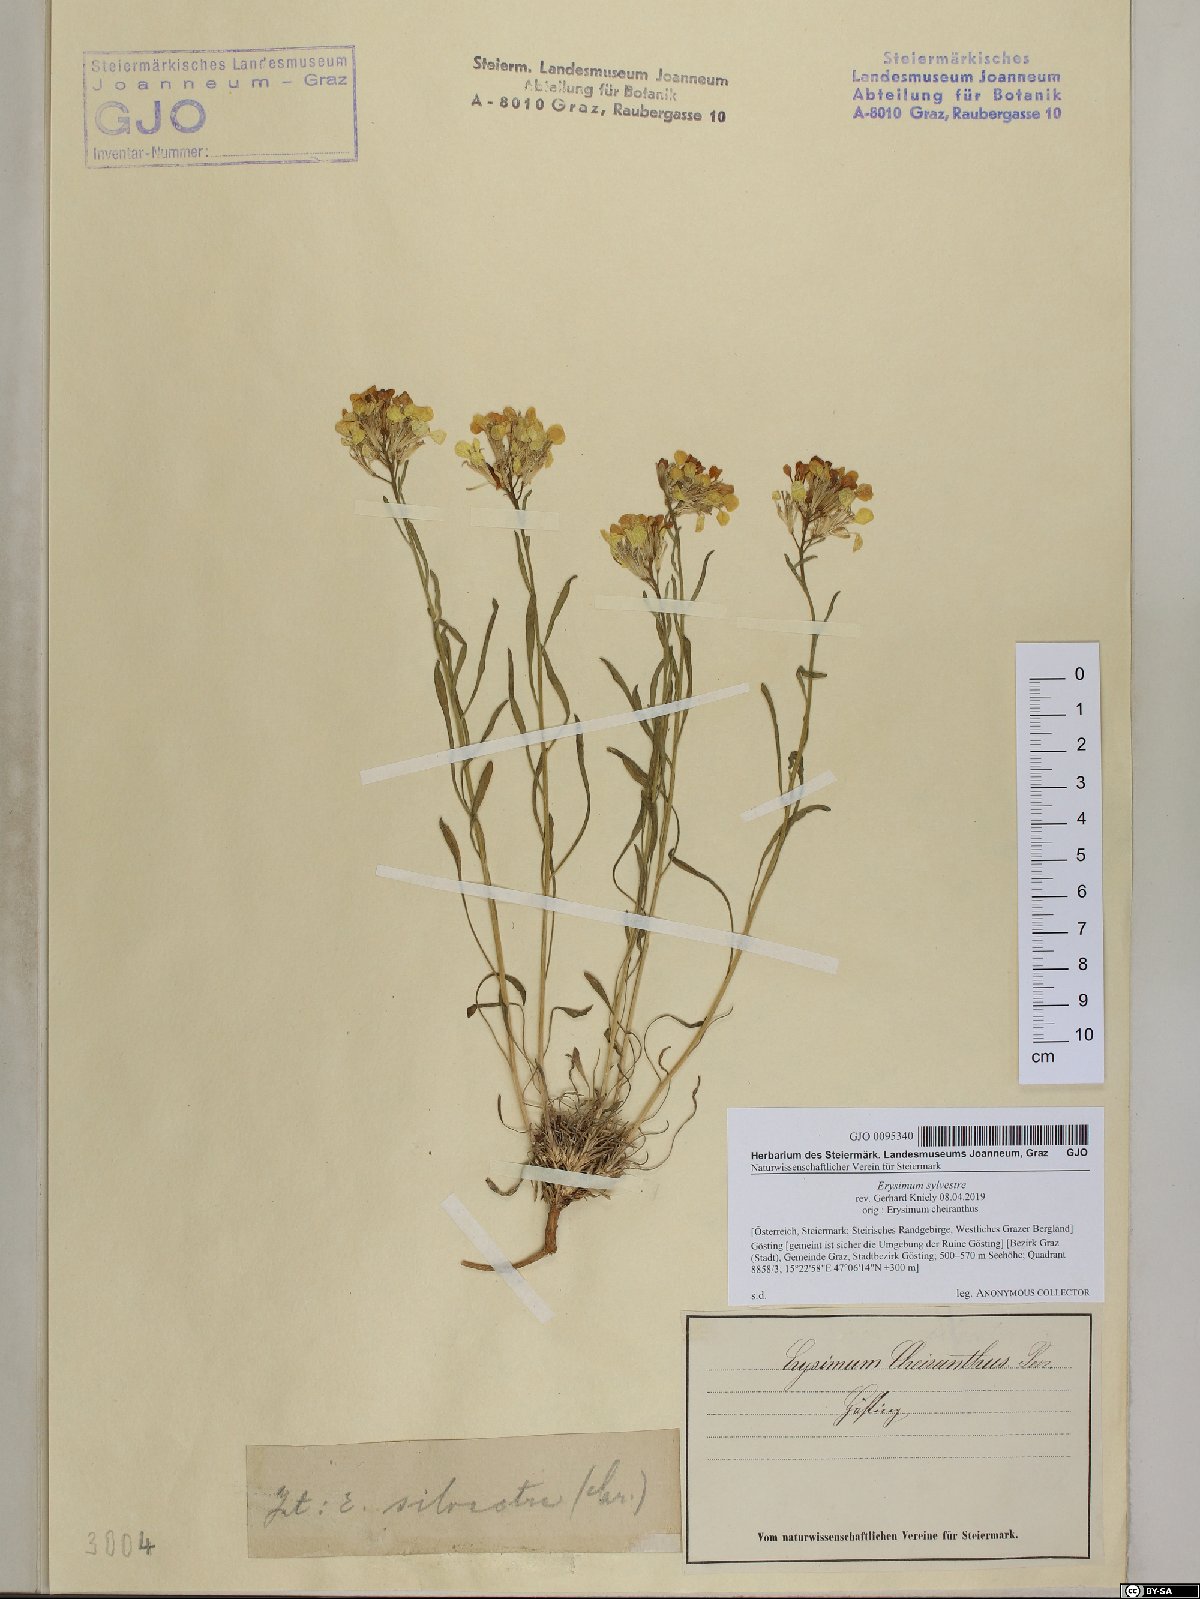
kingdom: Plantae
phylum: Tracheophyta
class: Magnoliopsida
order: Brassicales
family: Brassicaceae
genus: Erysimum
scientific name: Erysimum sylvestre
